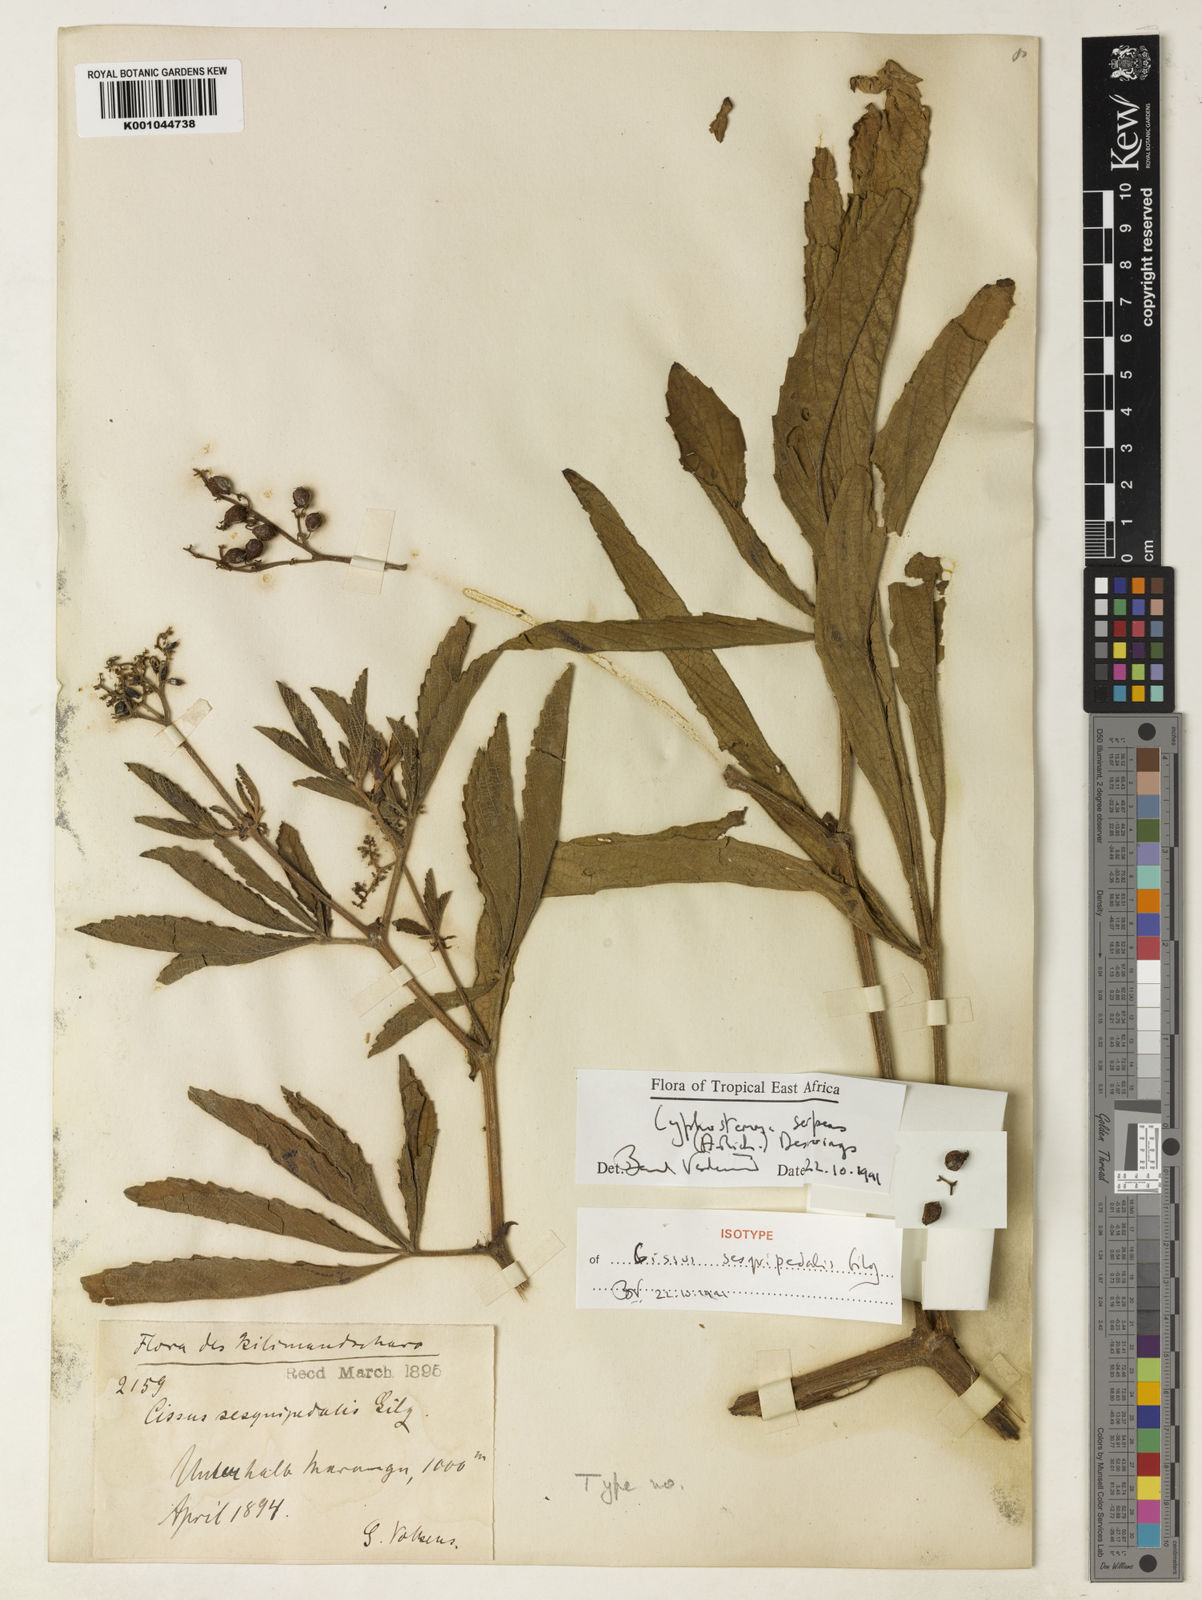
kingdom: Plantae
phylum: Tracheophyta
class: Magnoliopsida
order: Vitales
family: Vitaceae
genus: Cyphostemma
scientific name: Cyphostemma serpens
